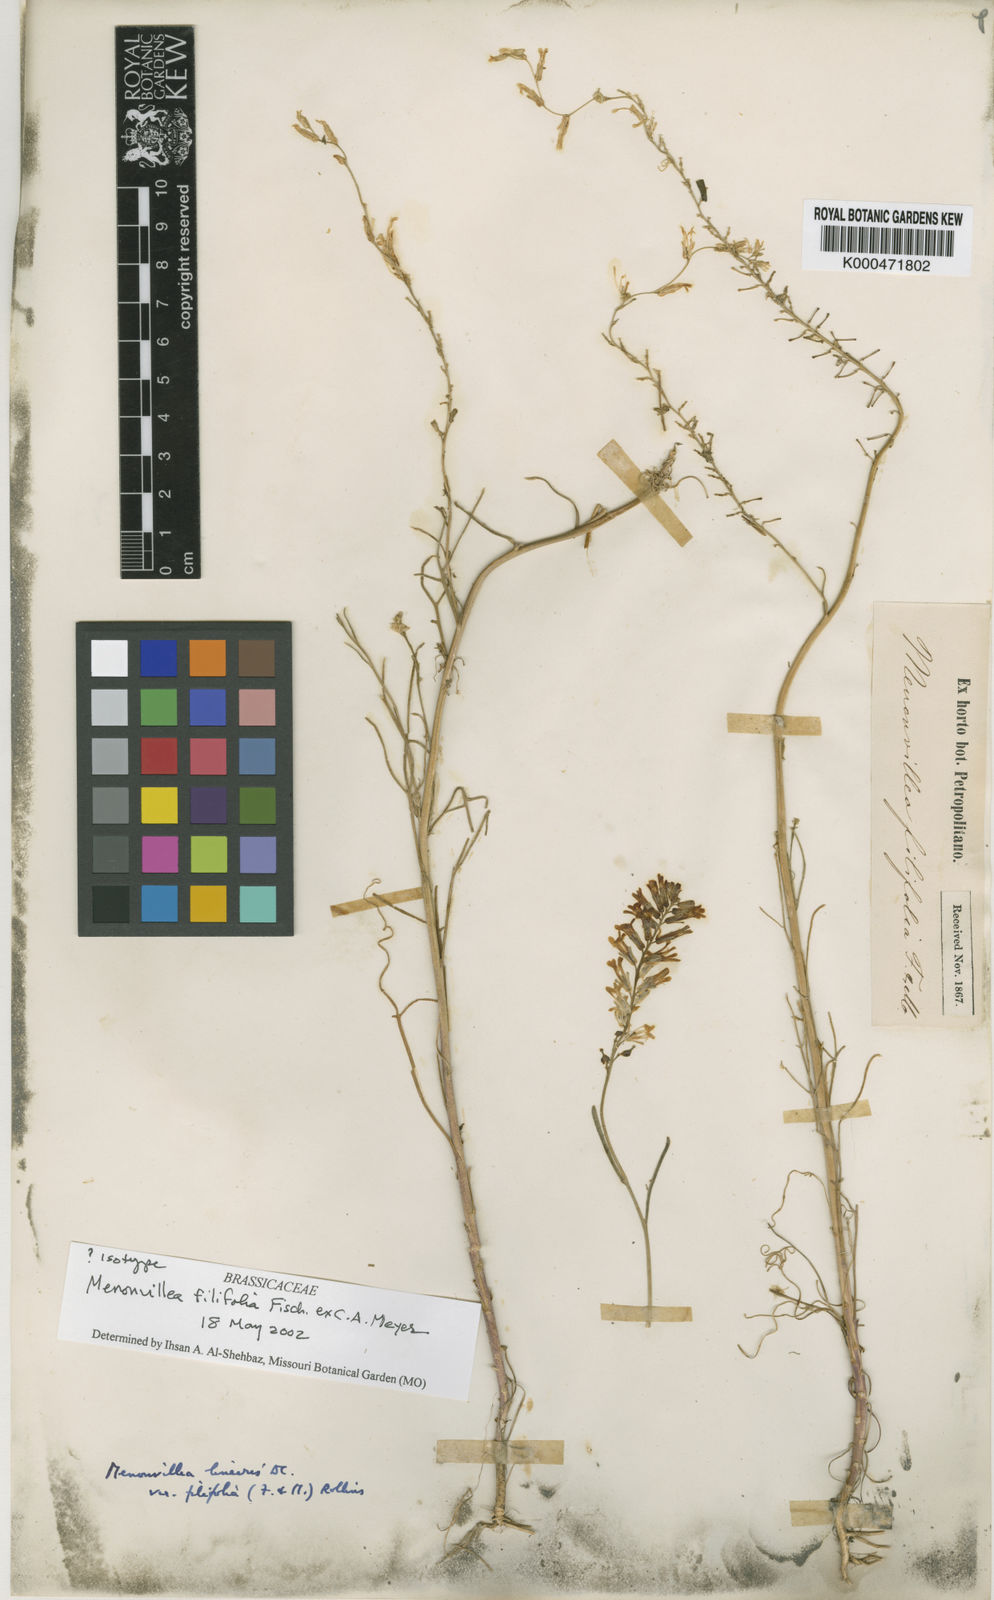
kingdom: Plantae
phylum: Tracheophyta
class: Magnoliopsida
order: Brassicales
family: Brassicaceae
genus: Menonvillea
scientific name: Menonvillea filifolia
